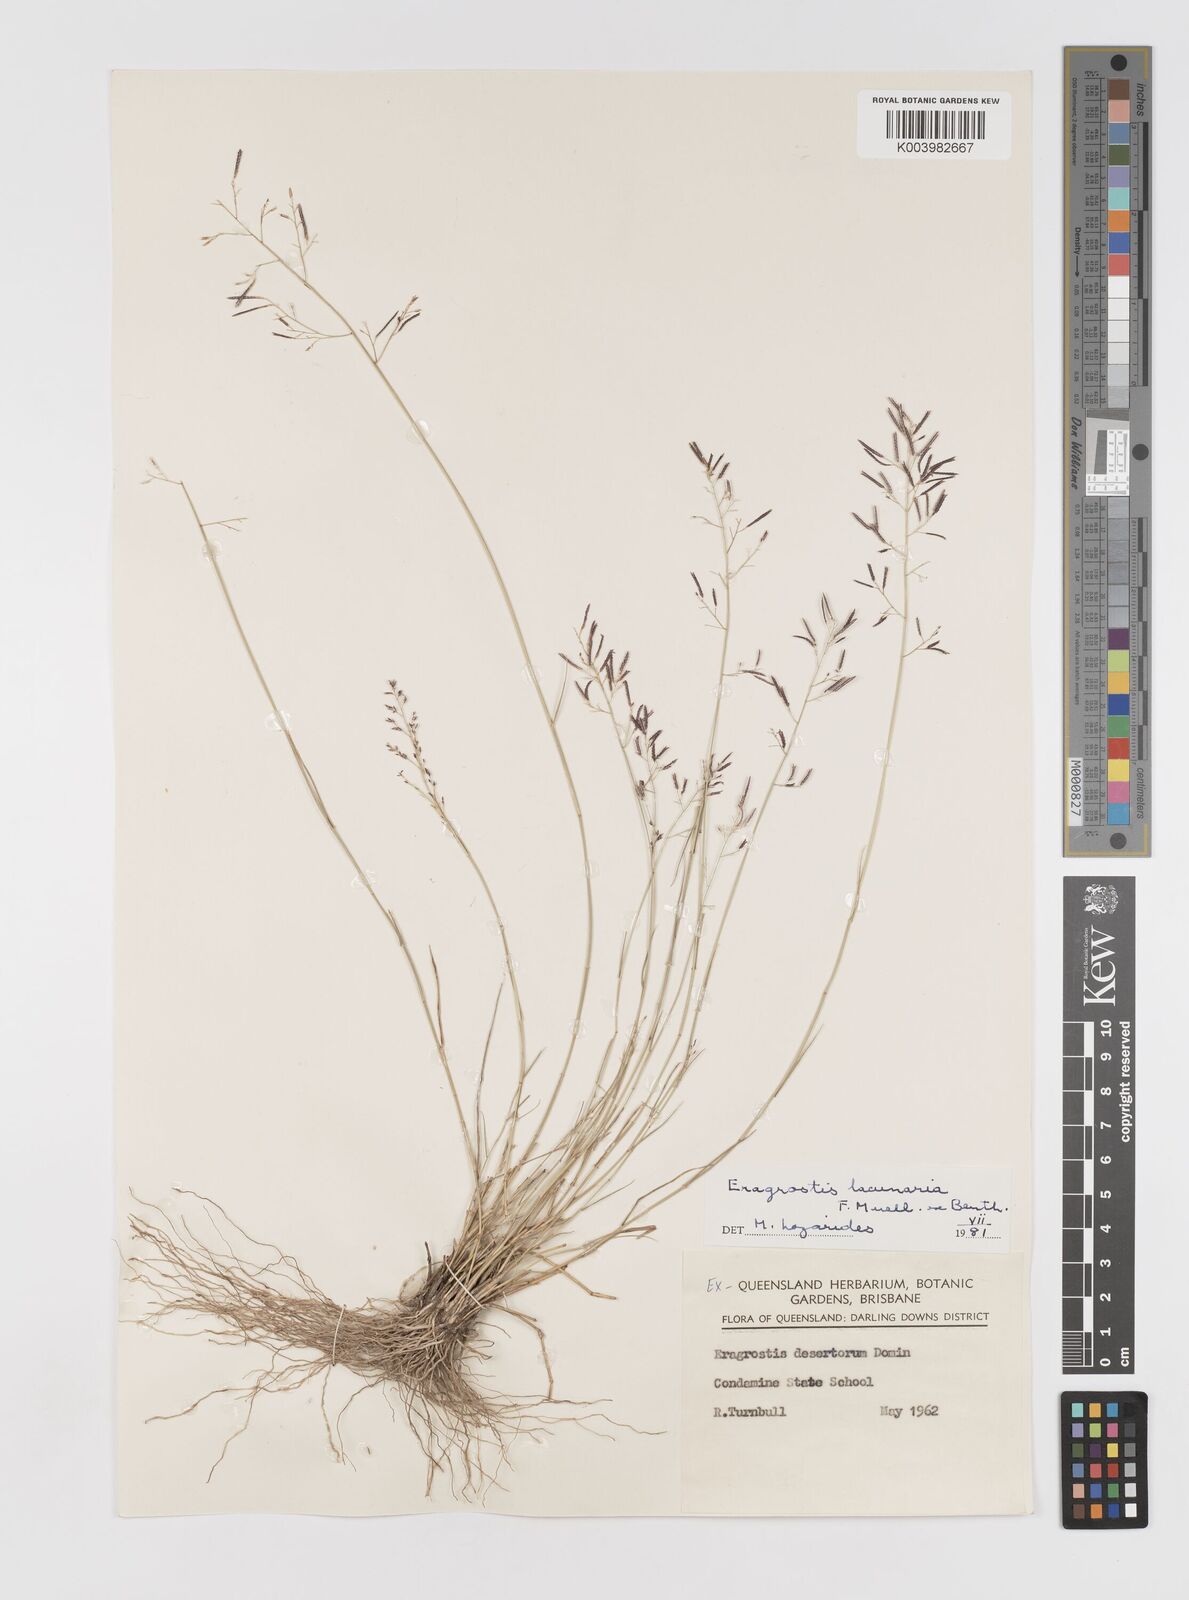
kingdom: Plantae
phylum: Tracheophyta
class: Liliopsida
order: Poales
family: Poaceae
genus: Eragrostis
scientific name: Eragrostis lacunaria
